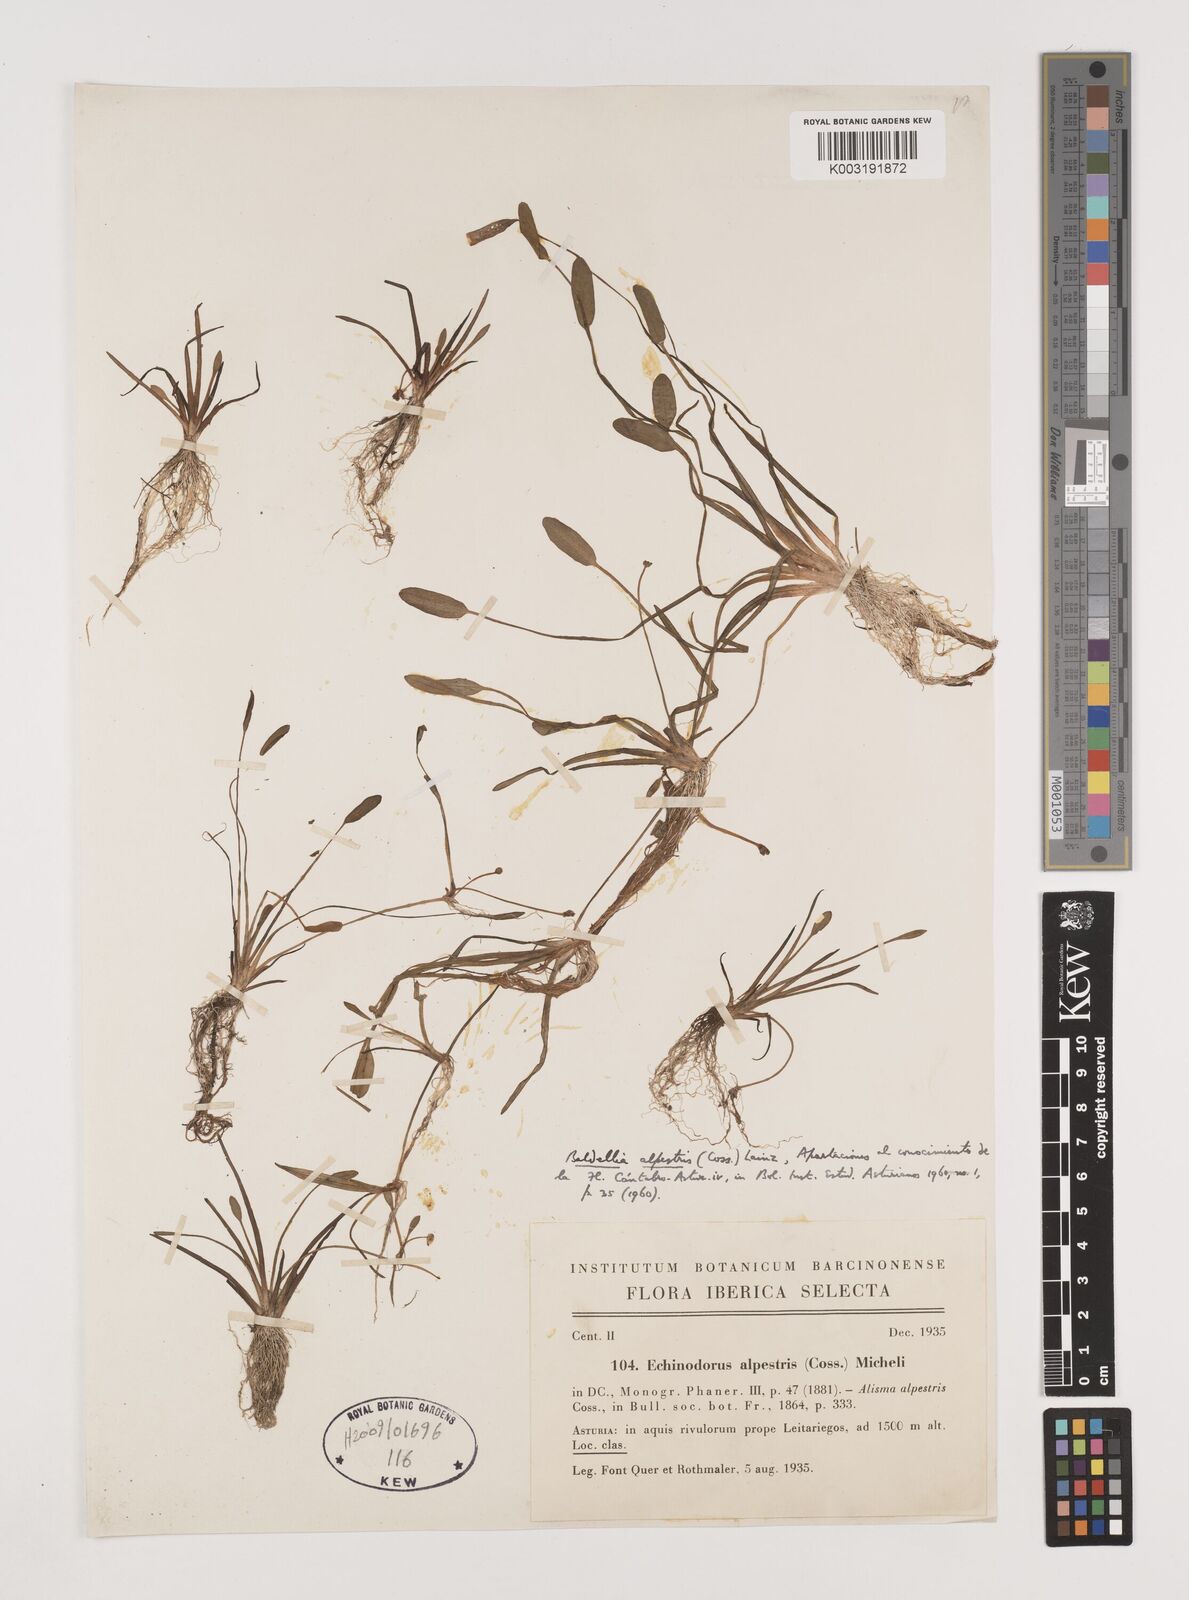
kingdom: Plantae
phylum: Tracheophyta
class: Liliopsida
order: Alismatales
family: Alismataceae
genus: Baldellia
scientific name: Baldellia alpestris
